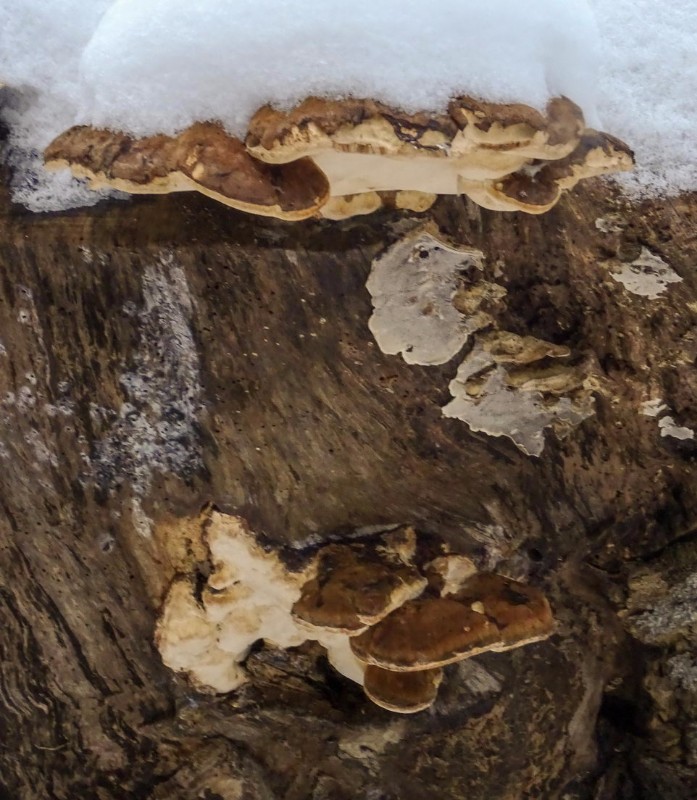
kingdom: Fungi
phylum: Basidiomycota
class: Agaricomycetes
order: Polyporales
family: Ischnodermataceae
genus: Ischnoderma
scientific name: Ischnoderma resinosum
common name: løv-tjæreporesvamp
